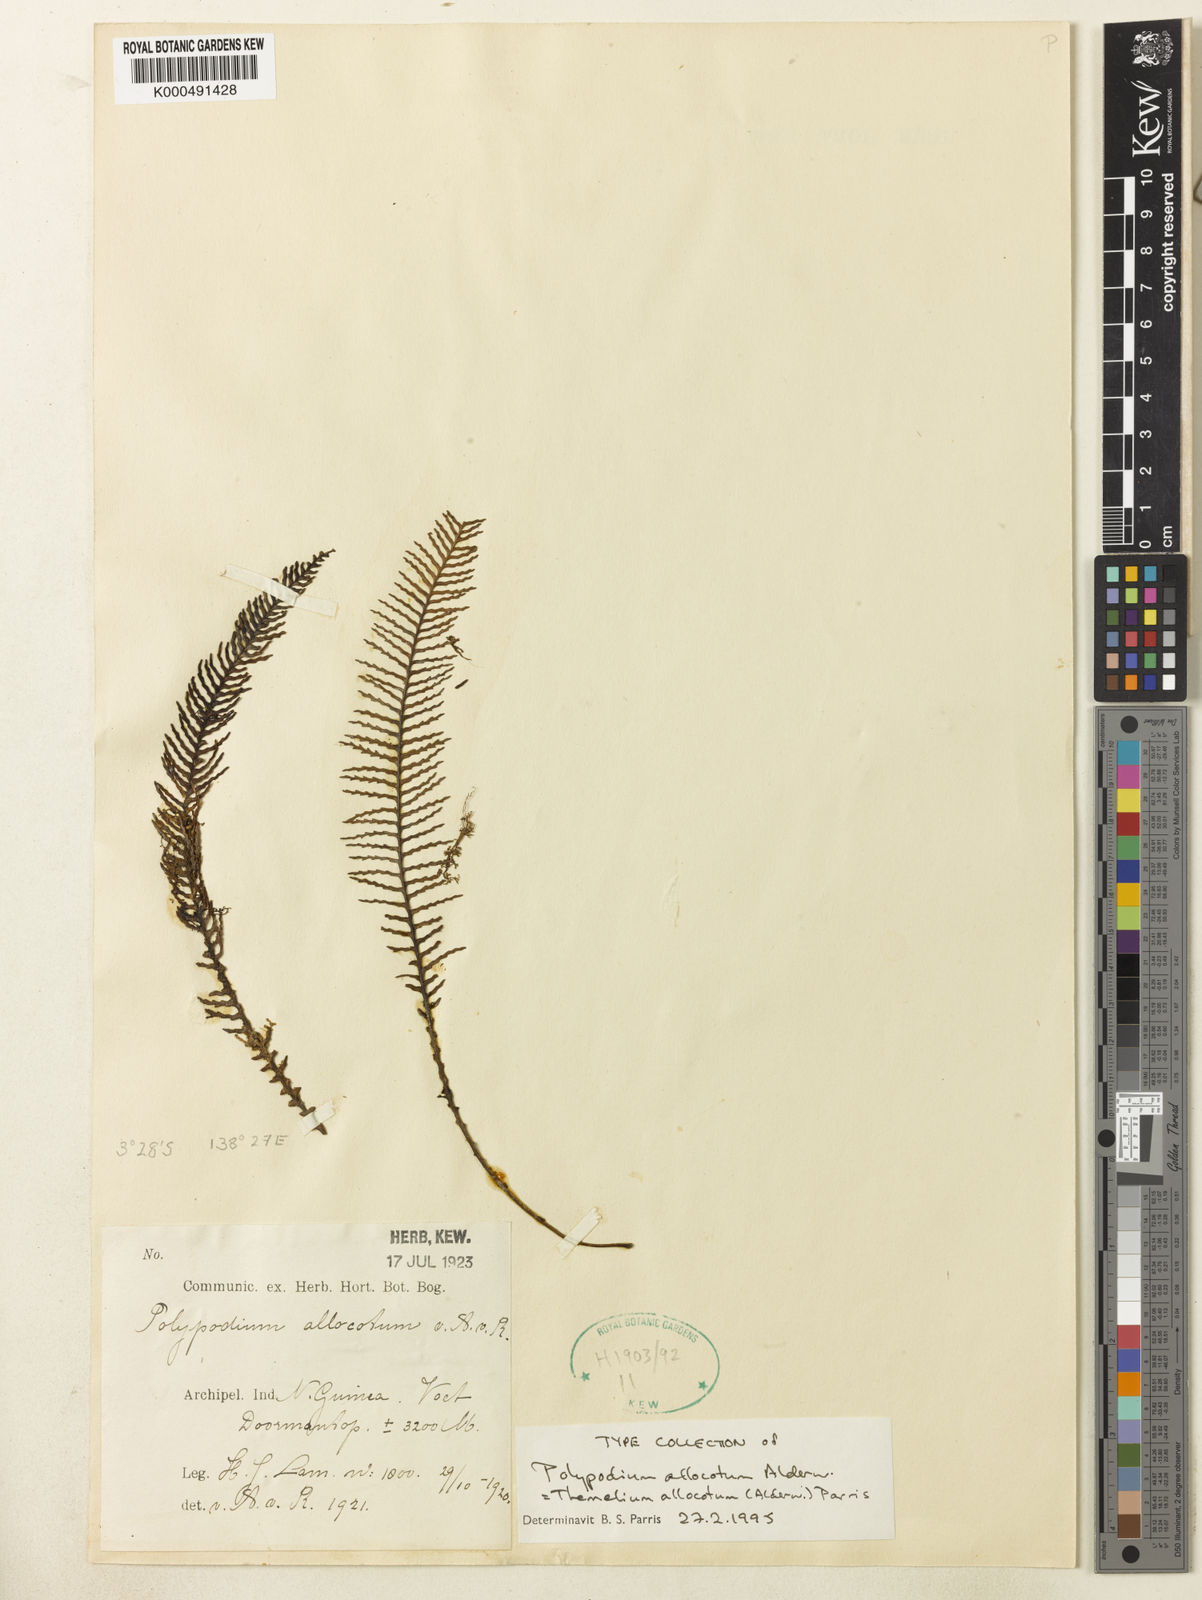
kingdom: Plantae
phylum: Tracheophyta
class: Polypodiopsida
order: Polypodiales
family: Polypodiaceae
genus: Oreogrammitis
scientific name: Oreogrammitis allocota
